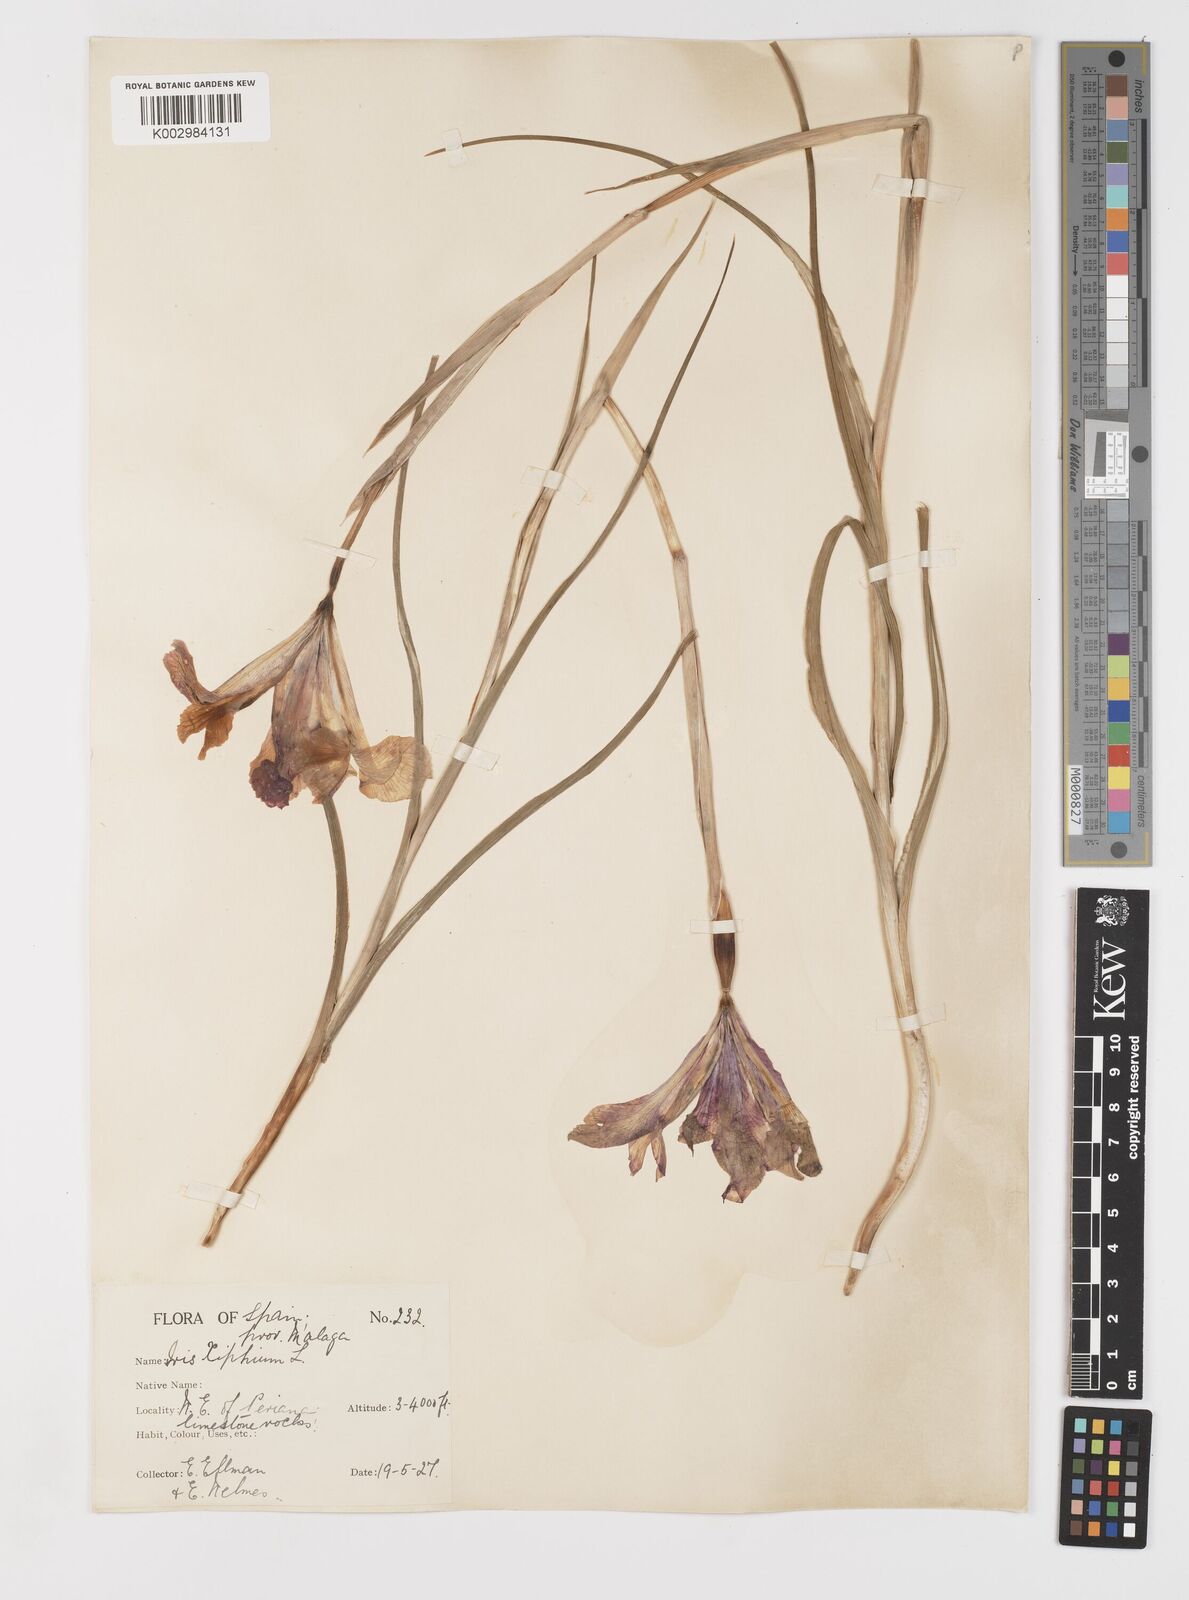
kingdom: Plantae
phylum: Tracheophyta
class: Liliopsida
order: Asparagales
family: Iridaceae
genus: Iris
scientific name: Iris xiphium
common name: Spanish iris
